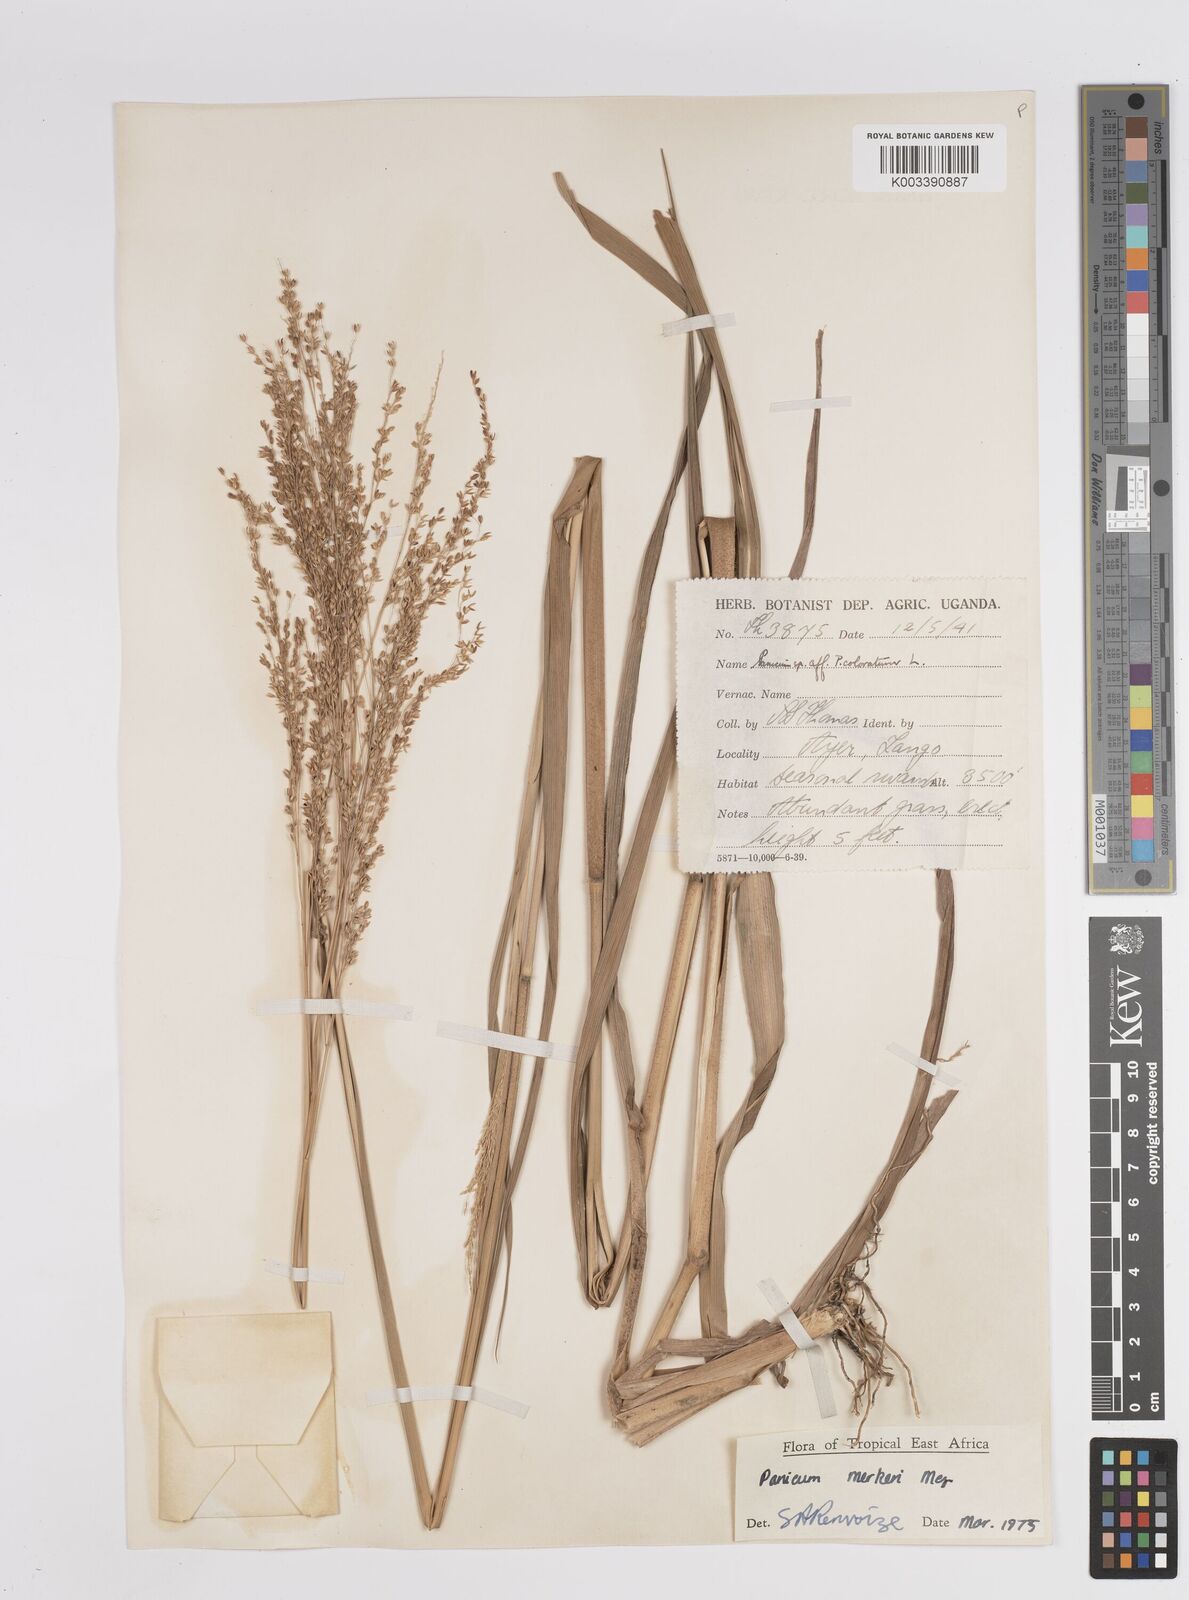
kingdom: Plantae
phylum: Tracheophyta
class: Liliopsida
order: Poales
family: Poaceae
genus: Panicum
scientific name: Panicum merkeri
